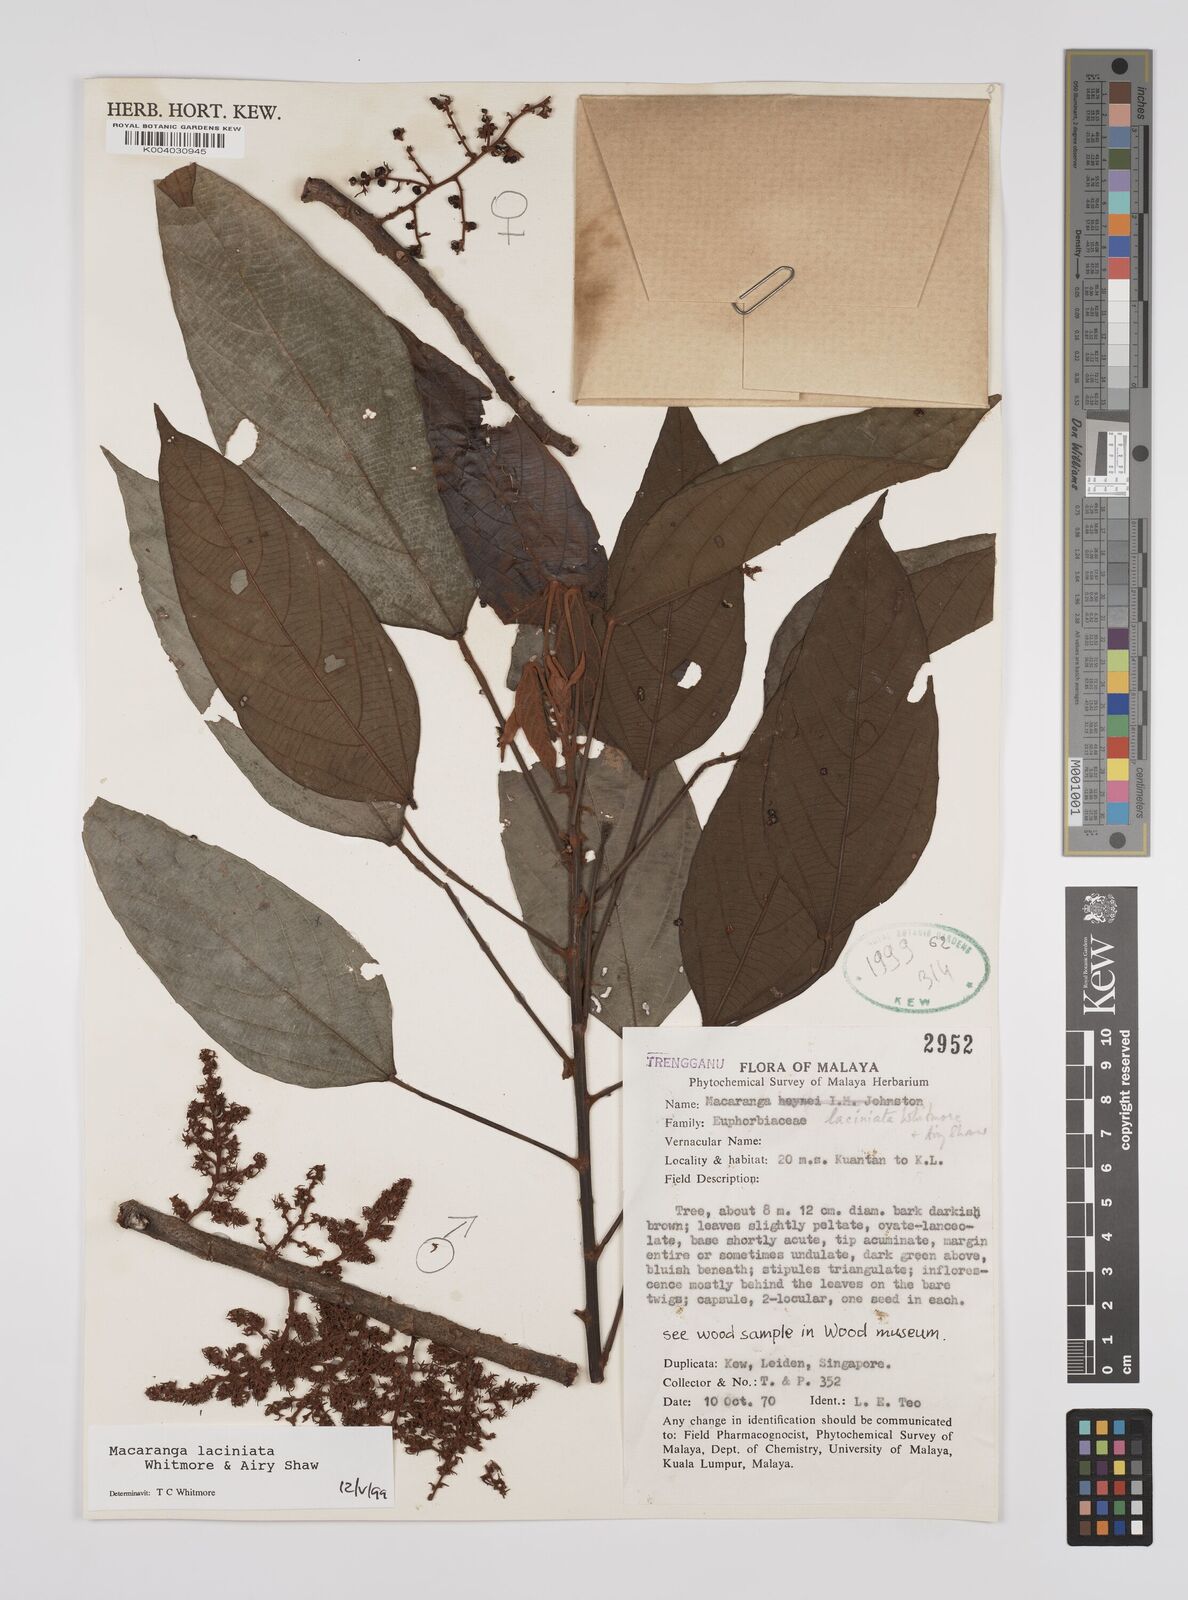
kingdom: Plantae
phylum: Tracheophyta
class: Magnoliopsida
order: Malpighiales
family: Euphorbiaceae
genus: Macaranga
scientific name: Macaranga laciniata
